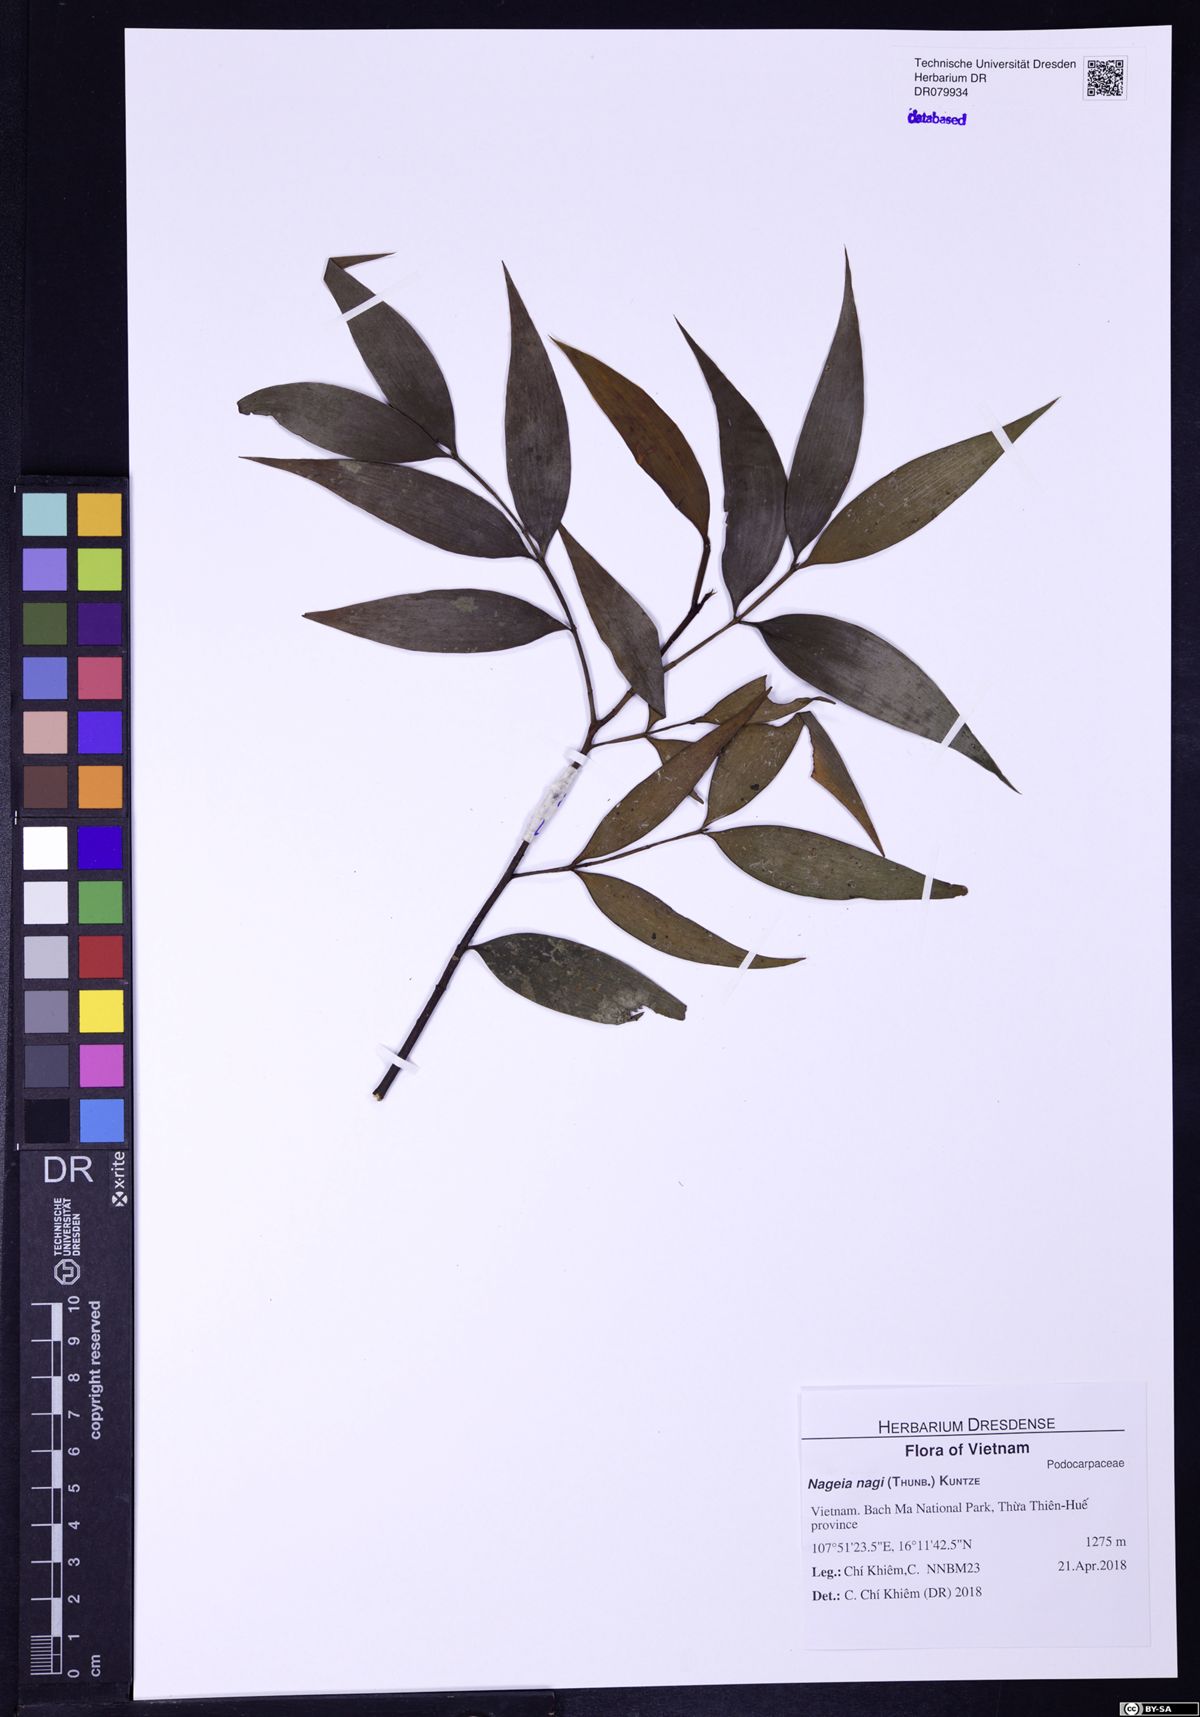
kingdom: Plantae
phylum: Tracheophyta
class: Pinopsida
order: Pinales
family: Podocarpaceae
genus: Nageia
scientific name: Nageia nagi
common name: Kaphal
